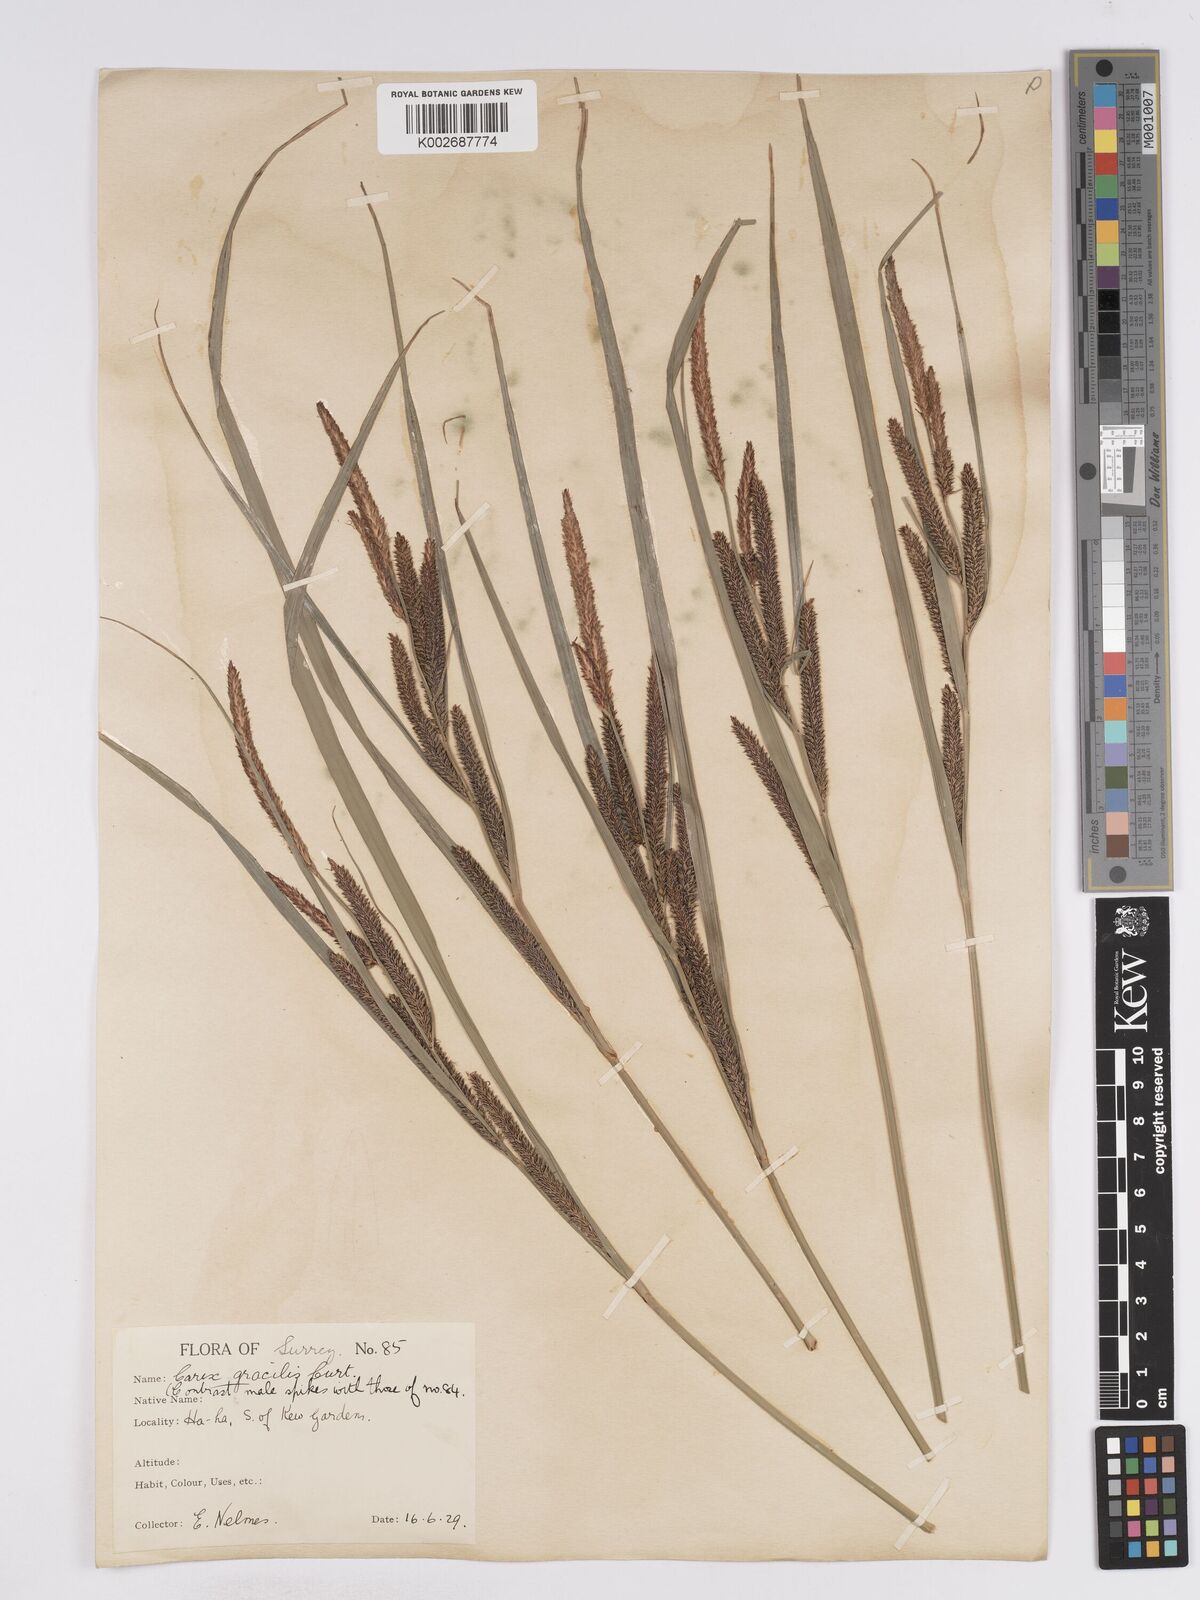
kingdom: Plantae
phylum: Tracheophyta
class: Liliopsida
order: Poales
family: Cyperaceae
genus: Carex
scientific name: Carex acuta
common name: Slender tufted-sedge
